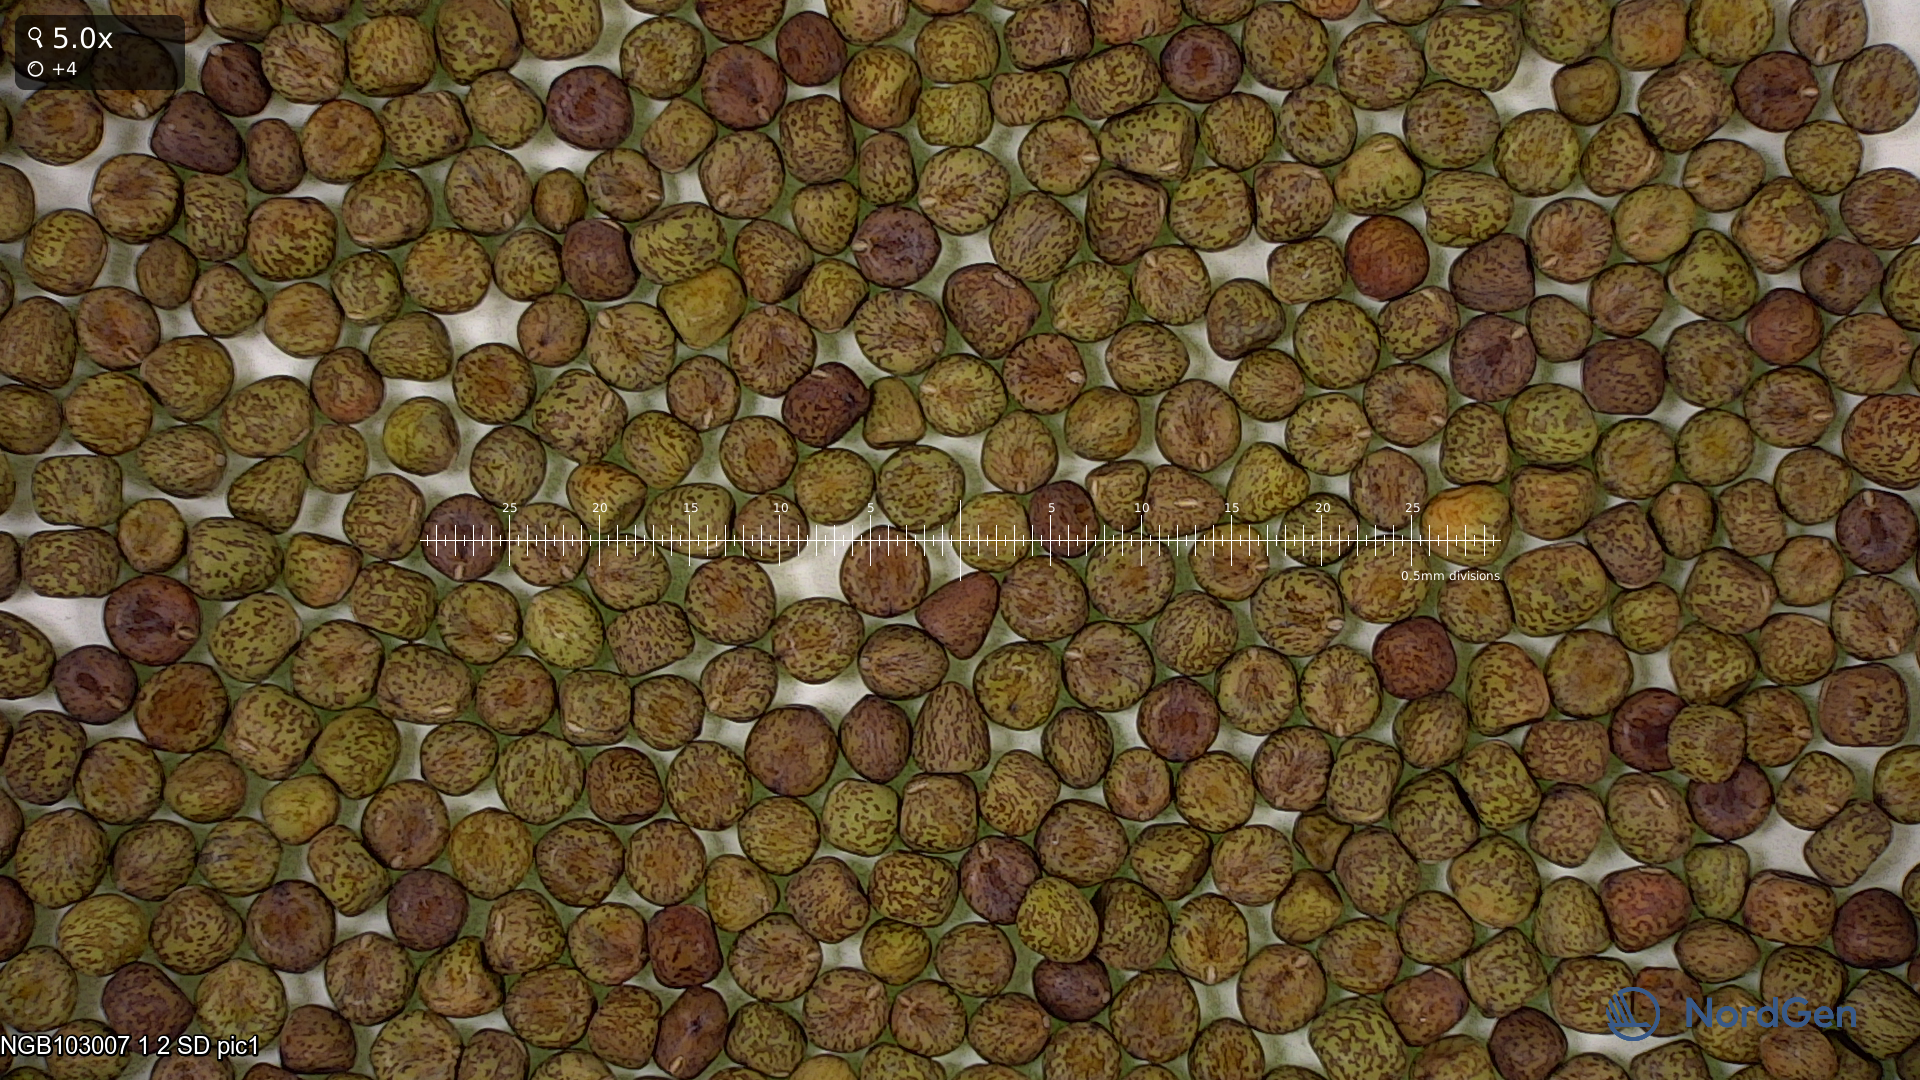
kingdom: Plantae
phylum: Tracheophyta
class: Magnoliopsida
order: Fabales
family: Fabaceae
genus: Lathyrus
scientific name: Lathyrus oleraceus
